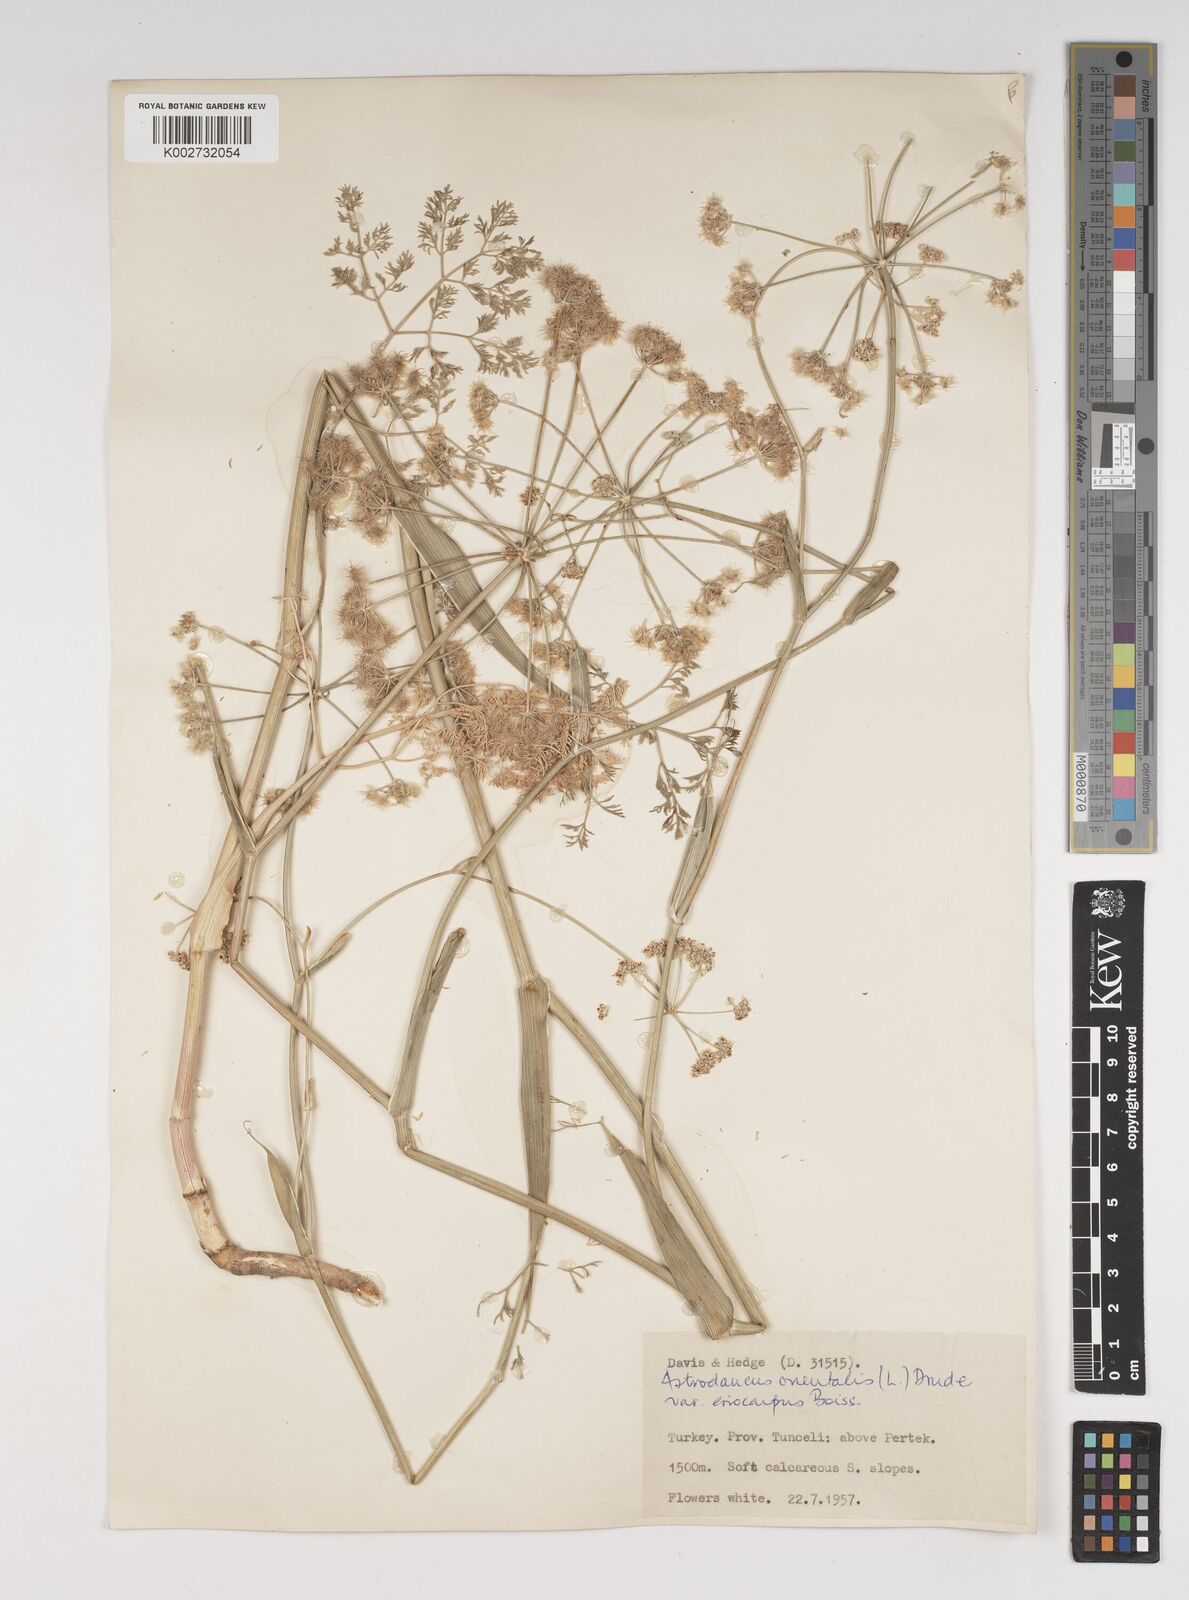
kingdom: Plantae
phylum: Tracheophyta
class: Magnoliopsida
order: Apiales
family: Apiaceae
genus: Astrodaucus
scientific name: Astrodaucus orientalis
